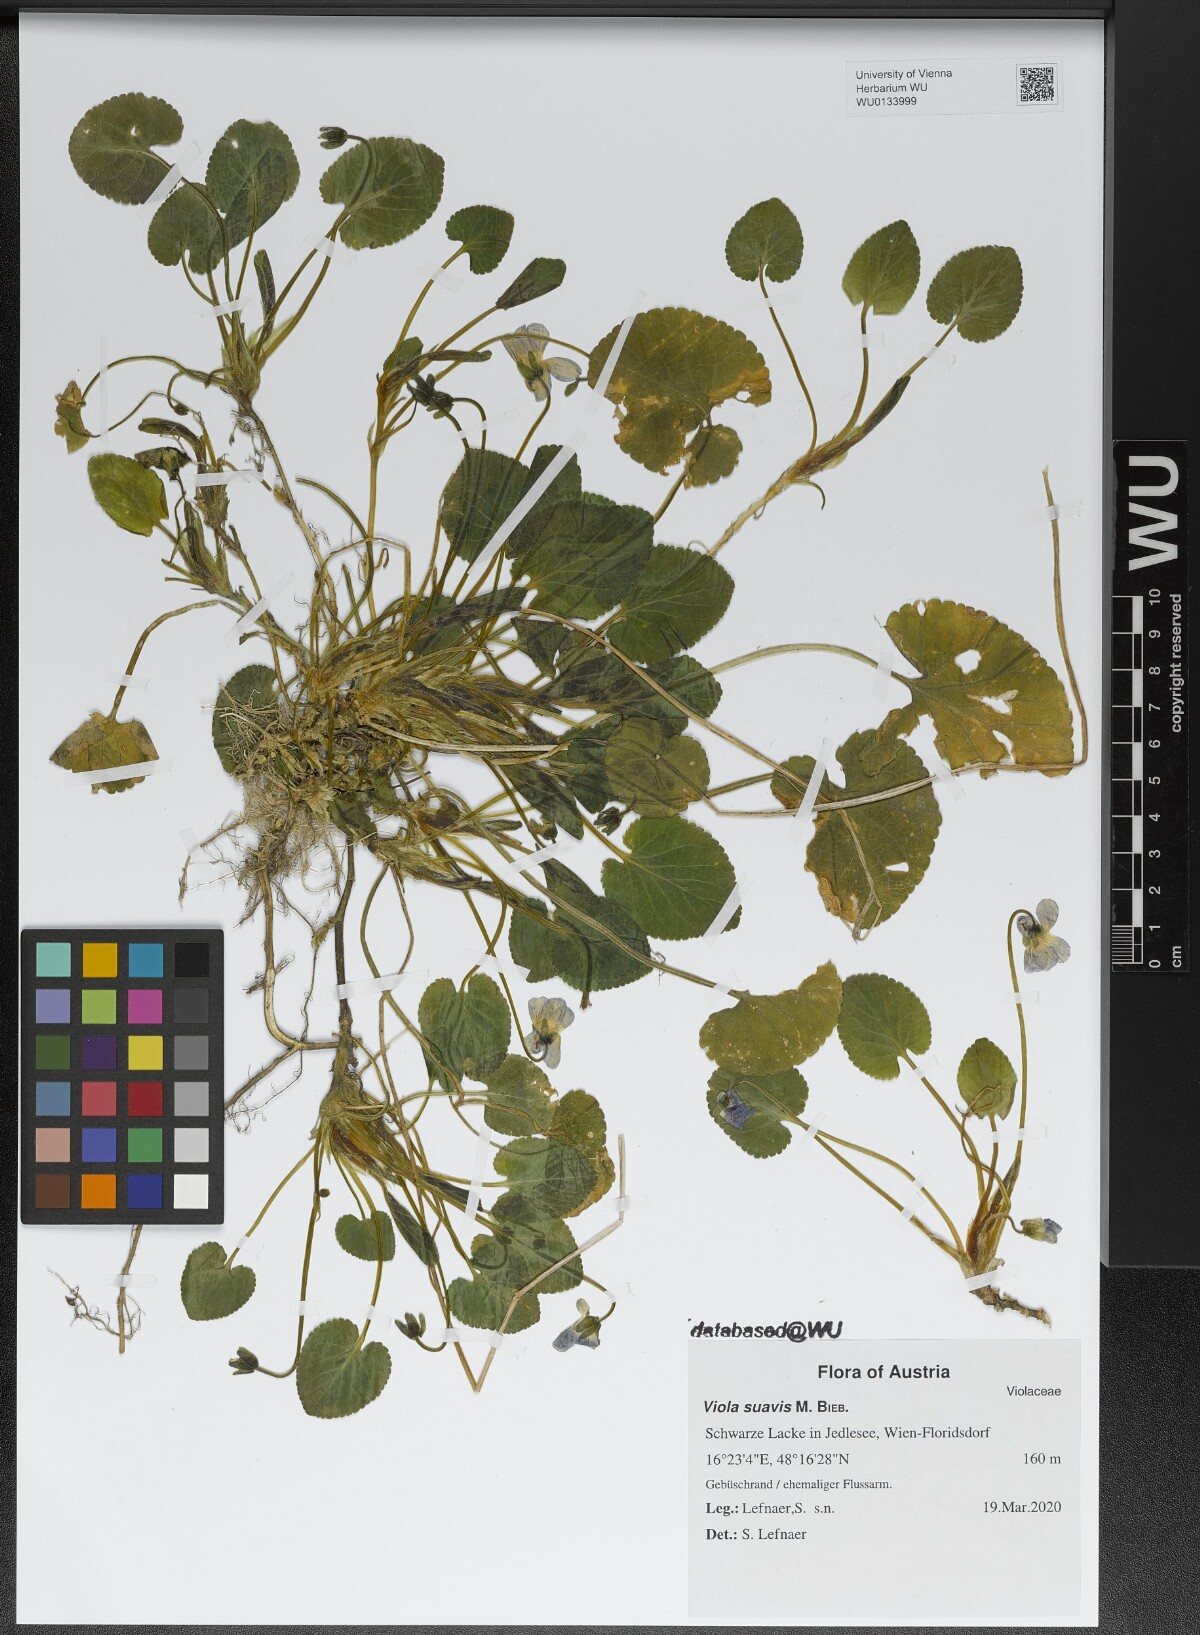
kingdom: Plantae
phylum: Tracheophyta
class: Magnoliopsida
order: Malpighiales
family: Violaceae
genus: Viola
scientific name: Viola suavis
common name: Russian violet
